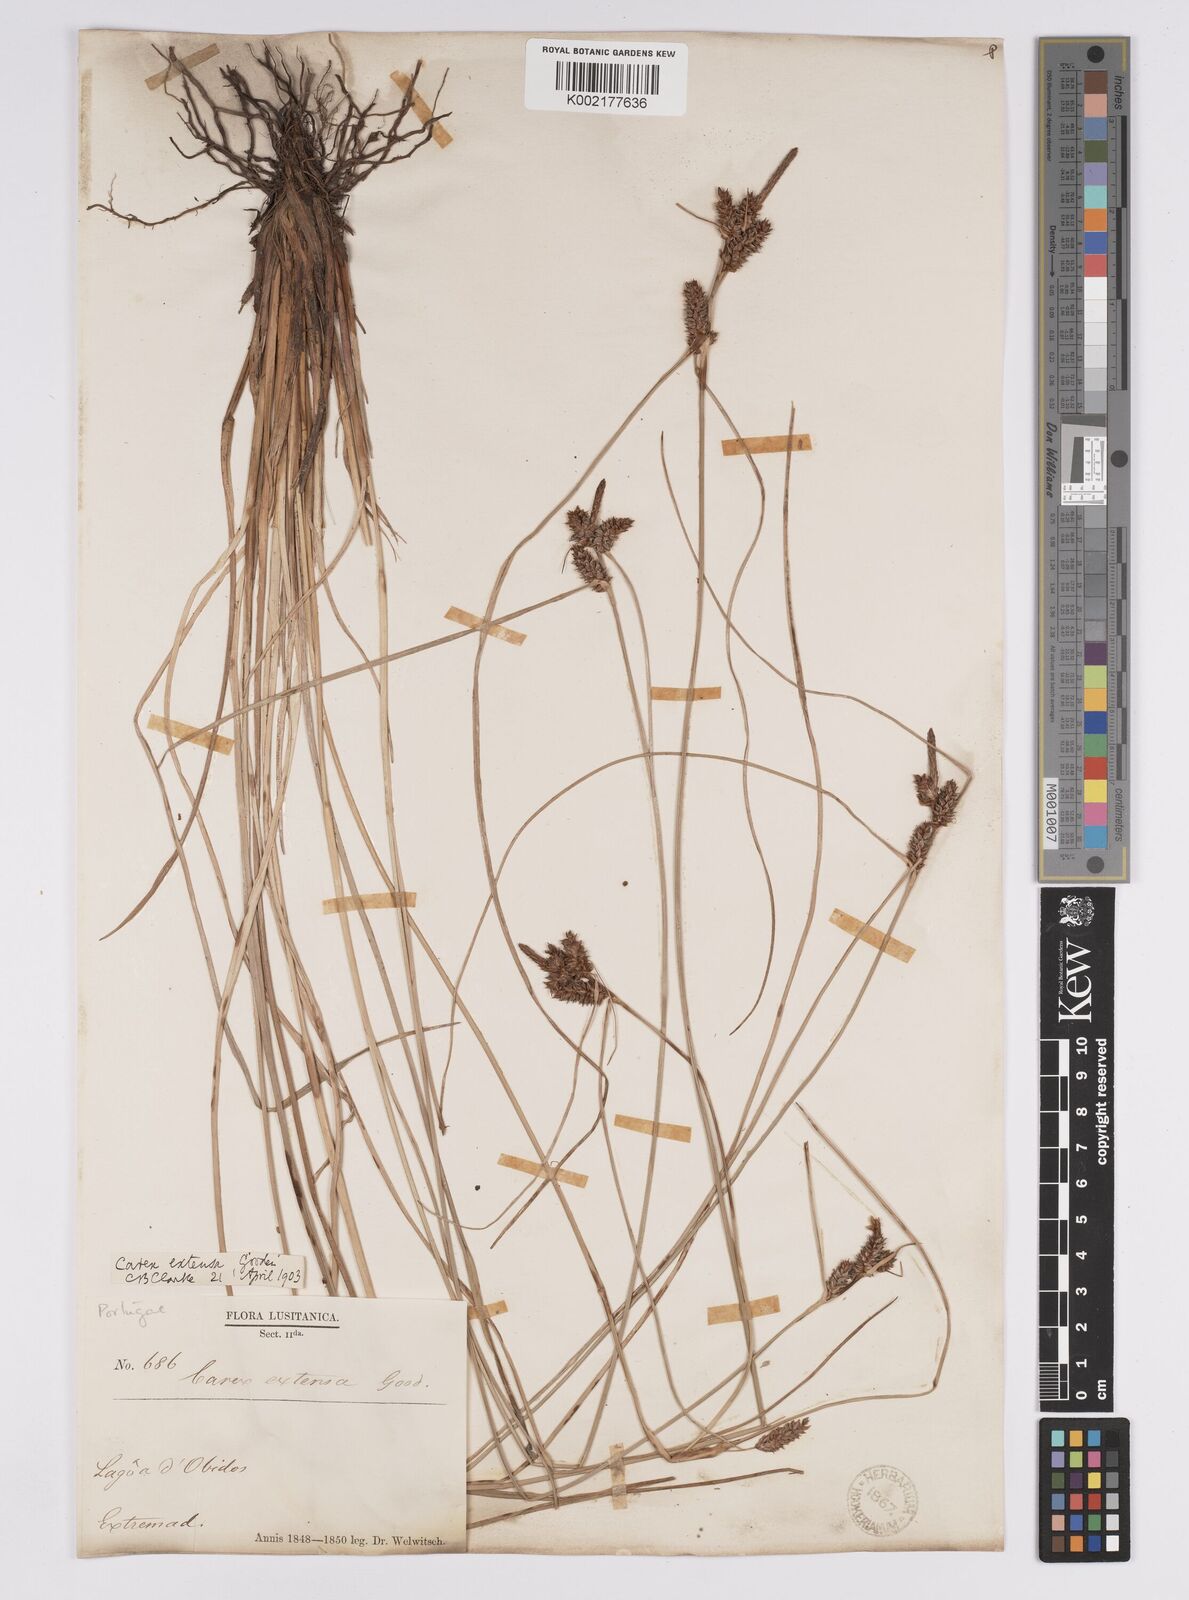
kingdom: Plantae
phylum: Tracheophyta
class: Liliopsida
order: Poales
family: Cyperaceae
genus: Carex
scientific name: Carex extensa
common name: Long-bracted sedge
